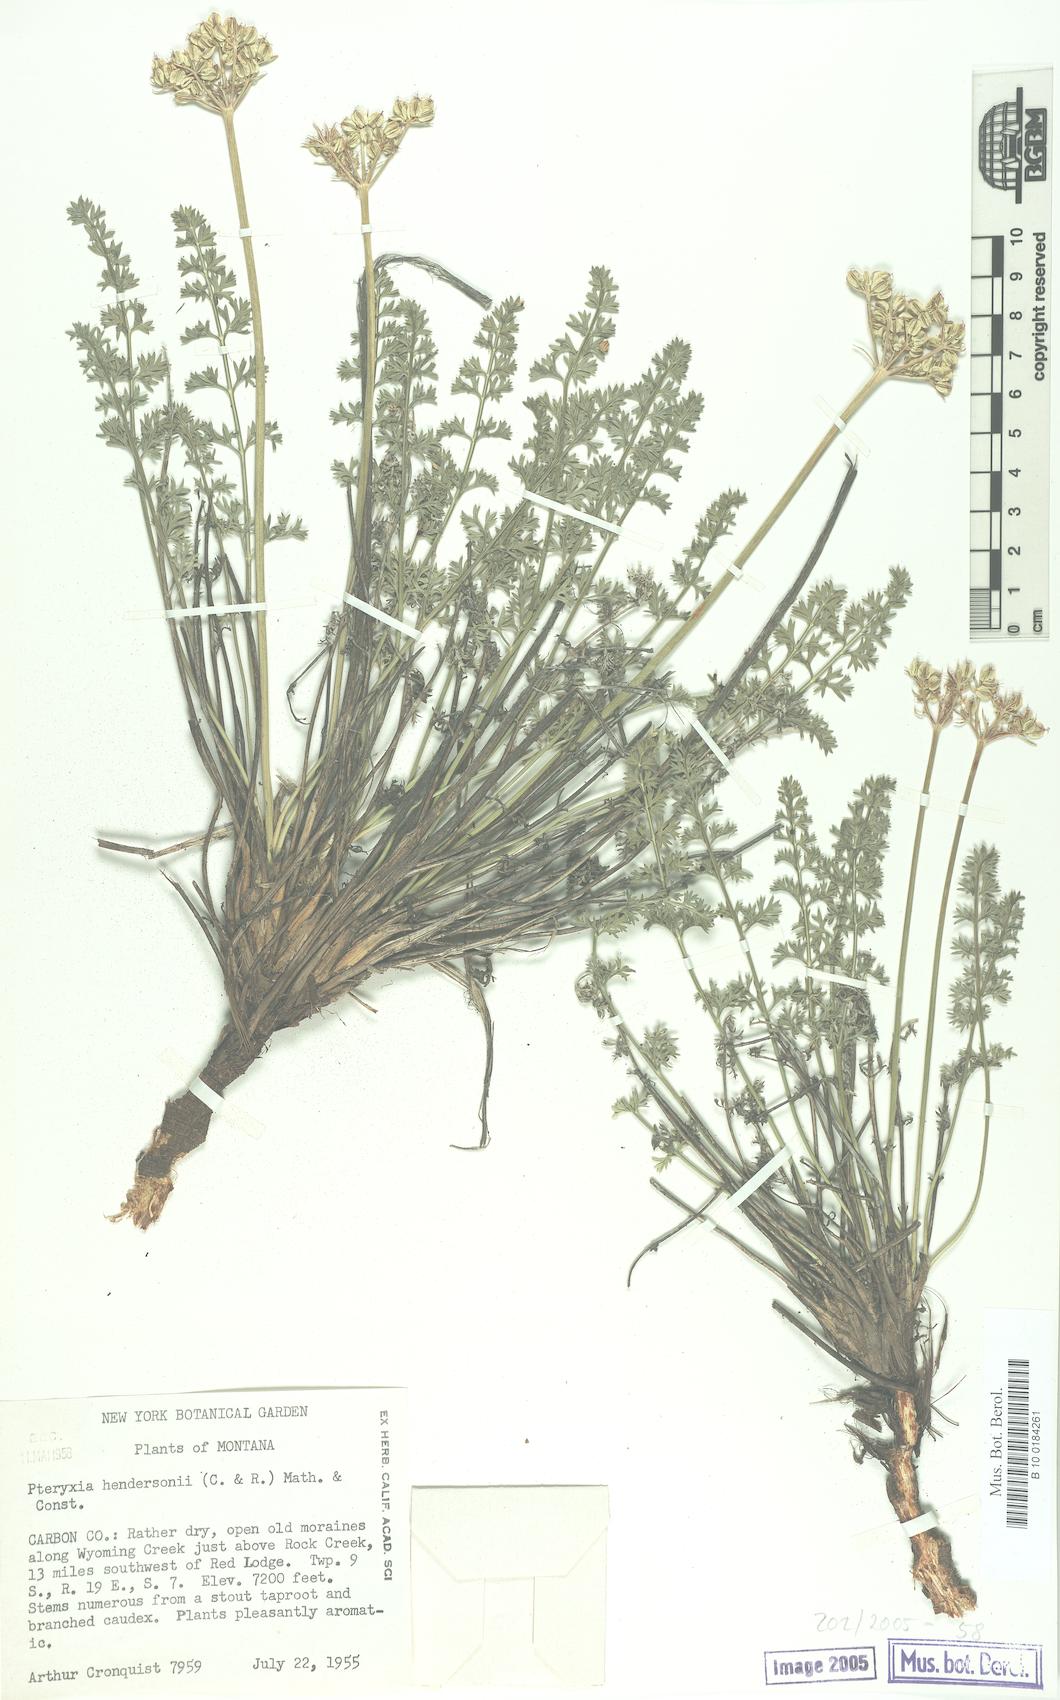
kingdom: Plantae
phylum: Tracheophyta
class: Magnoliopsida
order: Apiales
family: Apiaceae
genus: Pteryxia
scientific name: Pteryxia hendersonii
